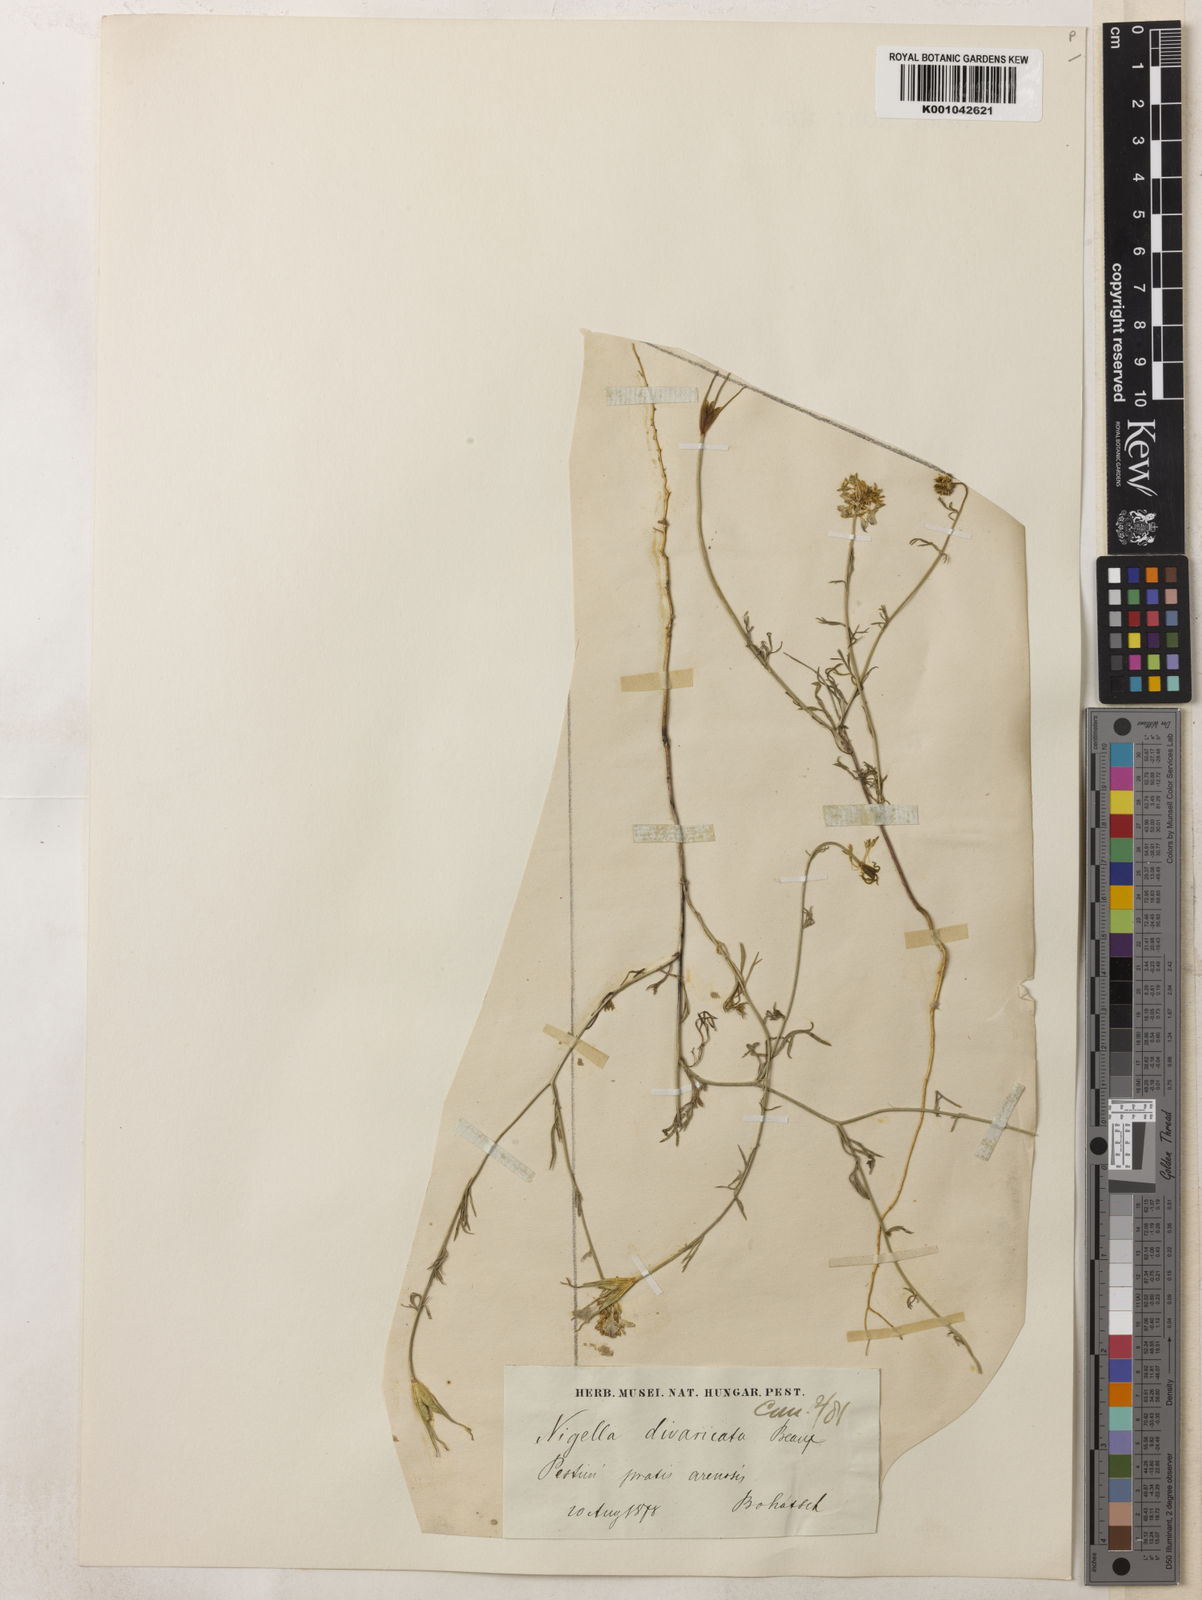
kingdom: Plantae
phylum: Tracheophyta
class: Magnoliopsida
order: Ranunculales
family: Ranunculaceae
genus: Nigella
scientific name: Nigella arvensis
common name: Wild fennel-flower
